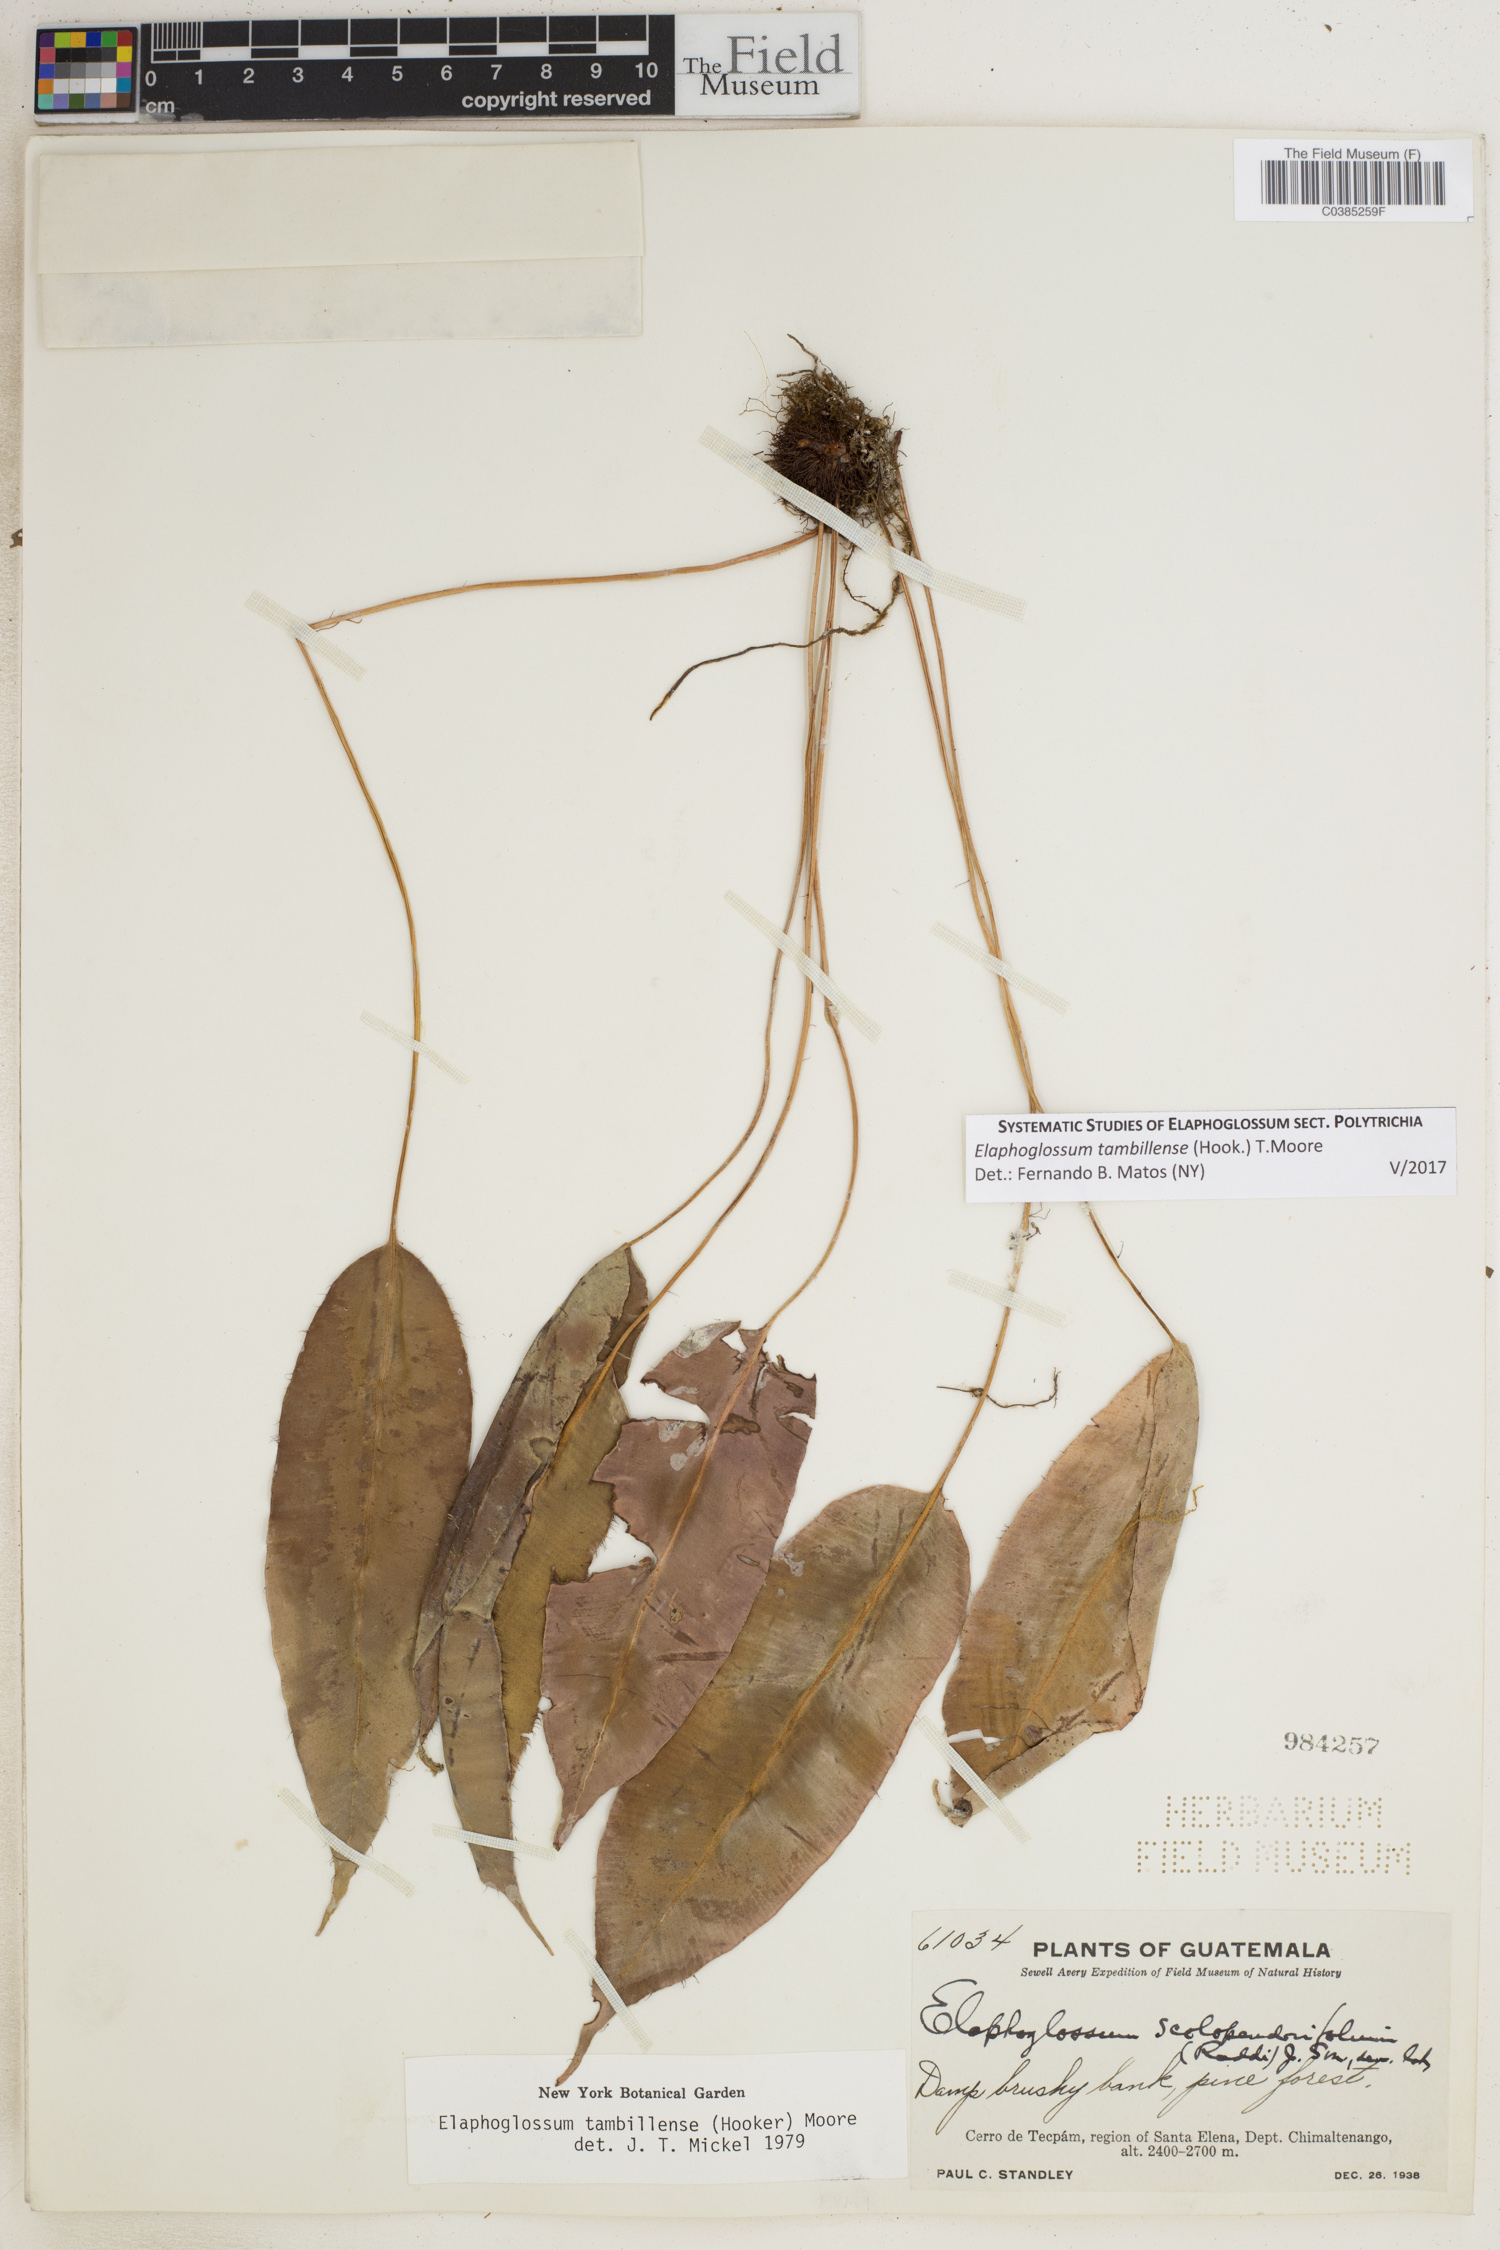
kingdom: Plantae
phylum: Tracheophyta
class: Polypodiopsida
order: Polypodiales
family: Dryopteridaceae
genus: Elaphoglossum
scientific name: Elaphoglossum tambillense
